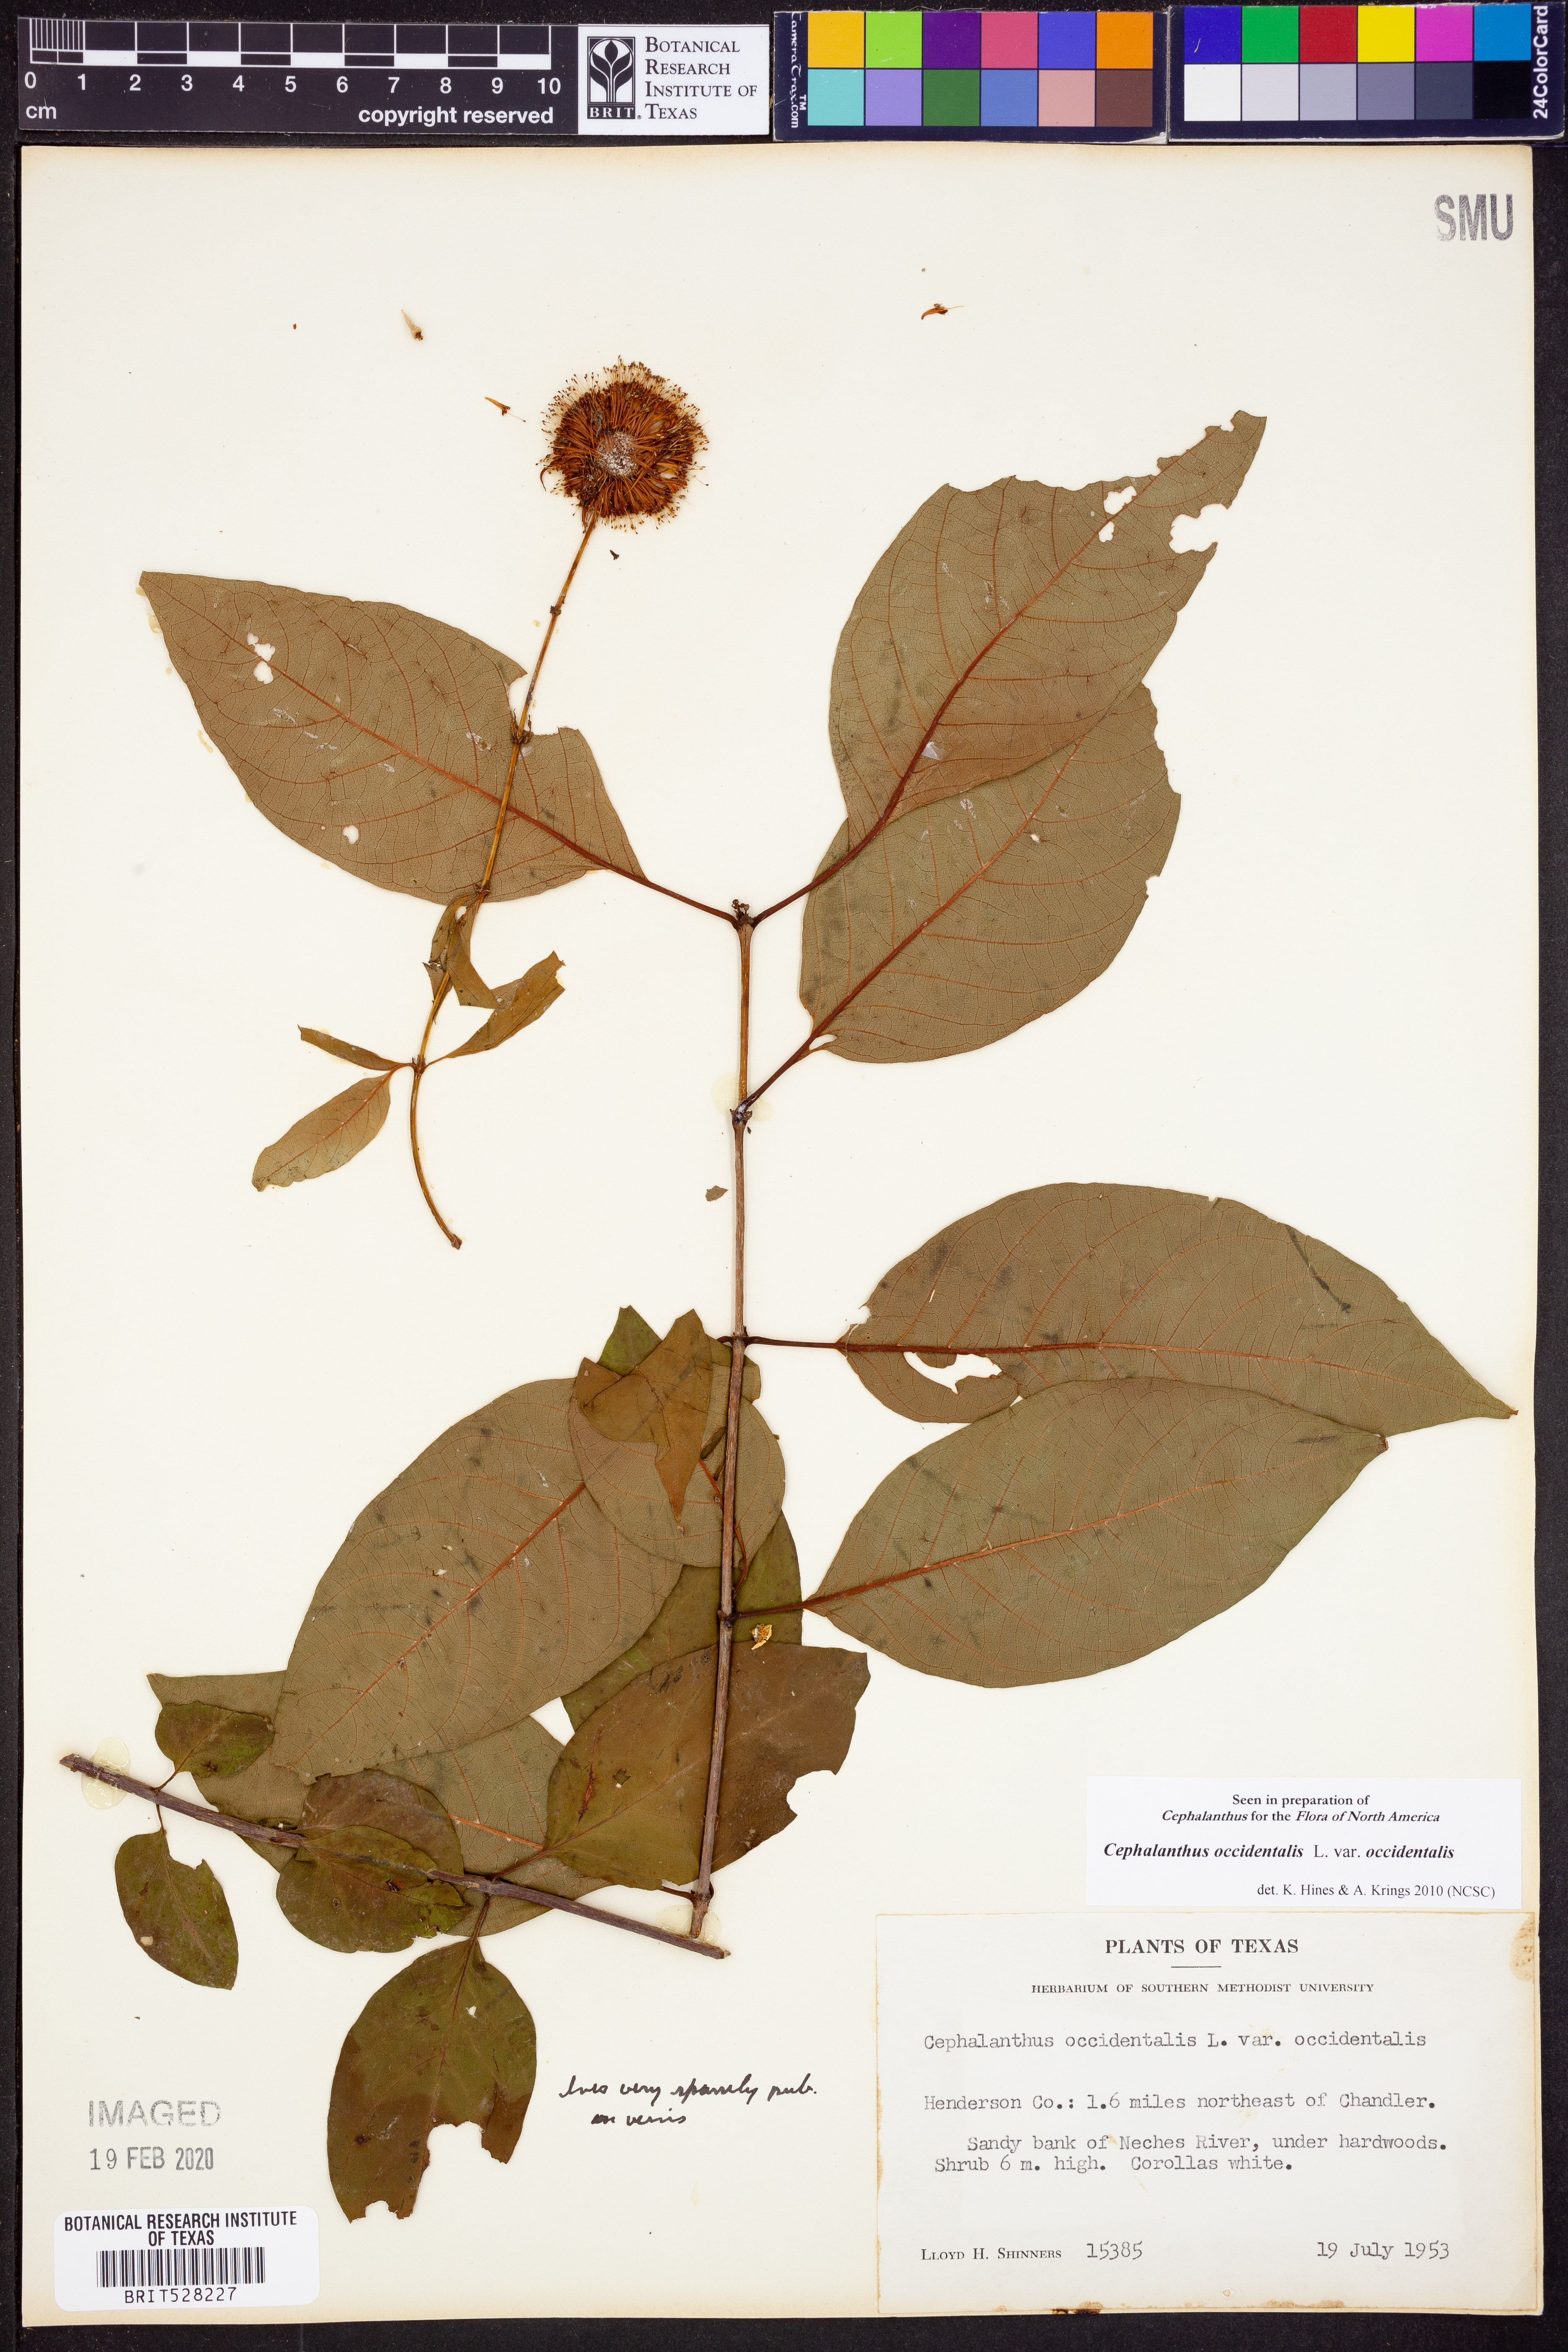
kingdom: Plantae
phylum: Tracheophyta
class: Magnoliopsida
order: Gentianales
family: Rubiaceae
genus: Cephalanthus
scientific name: Cephalanthus occidentalis
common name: Button-willow
